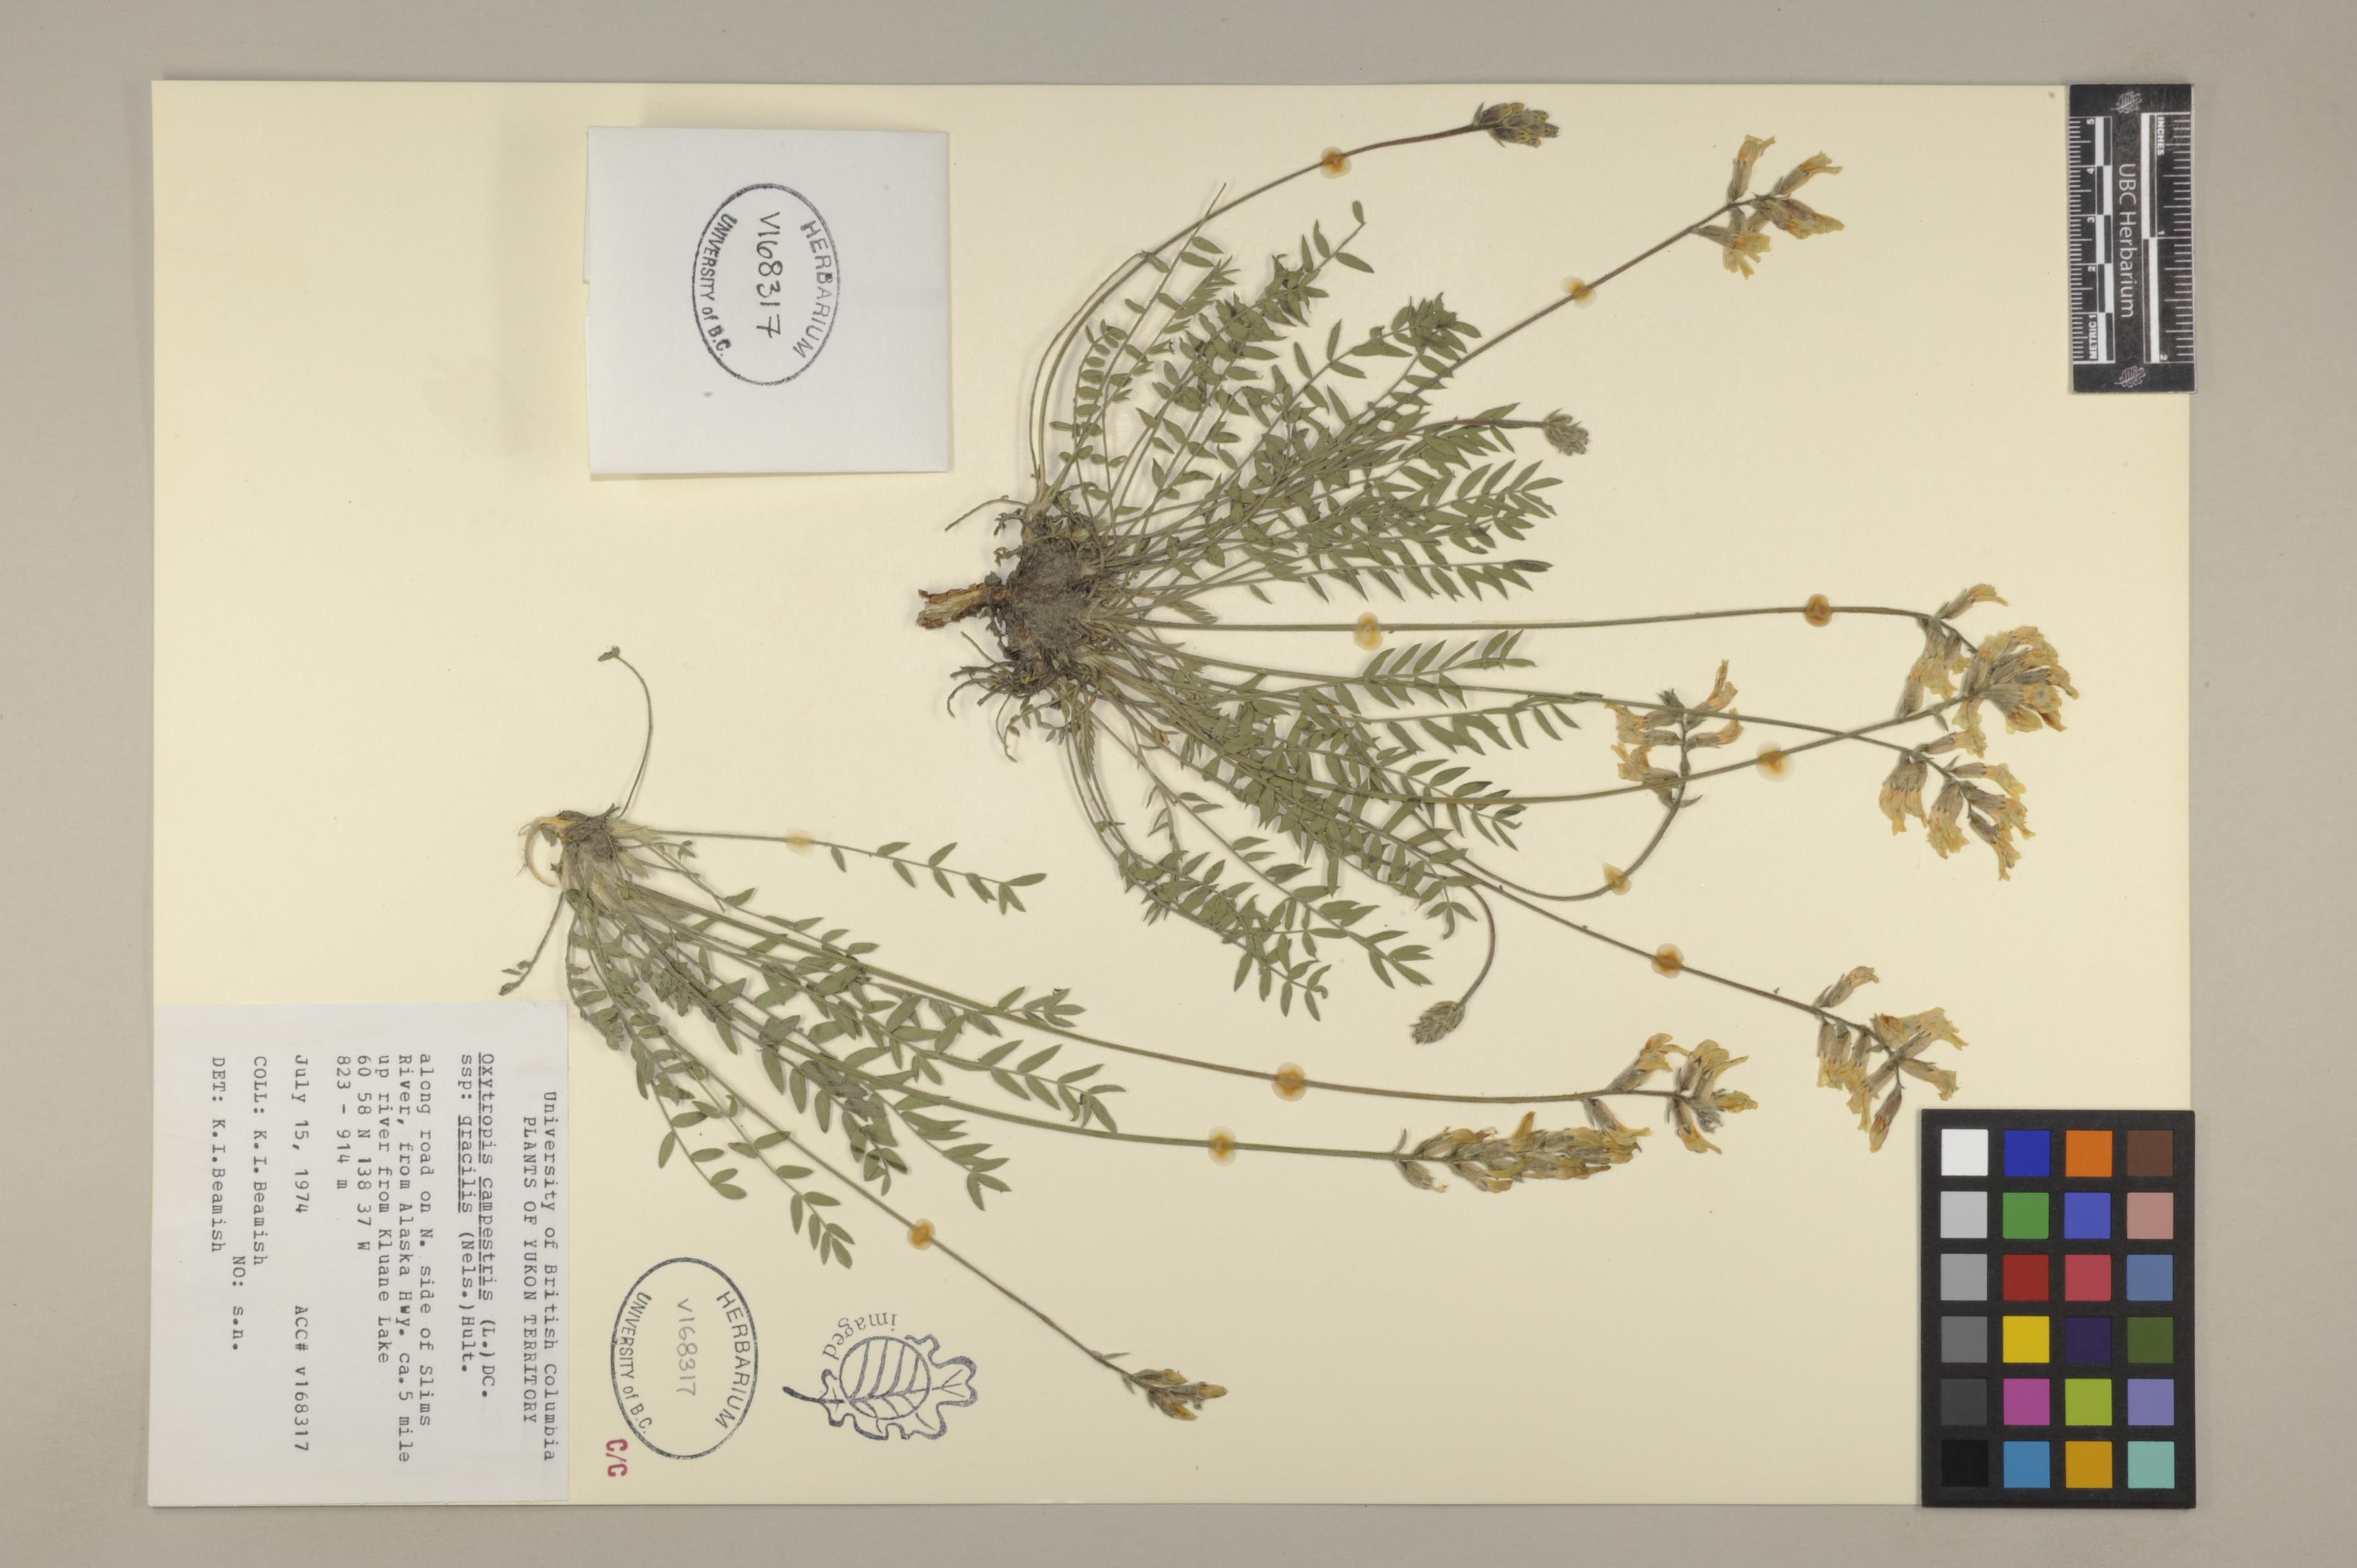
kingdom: Plantae
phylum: Tracheophyta
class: Magnoliopsida
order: Fabales
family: Fabaceae
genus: Oxytropis
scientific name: Oxytropis monticola
